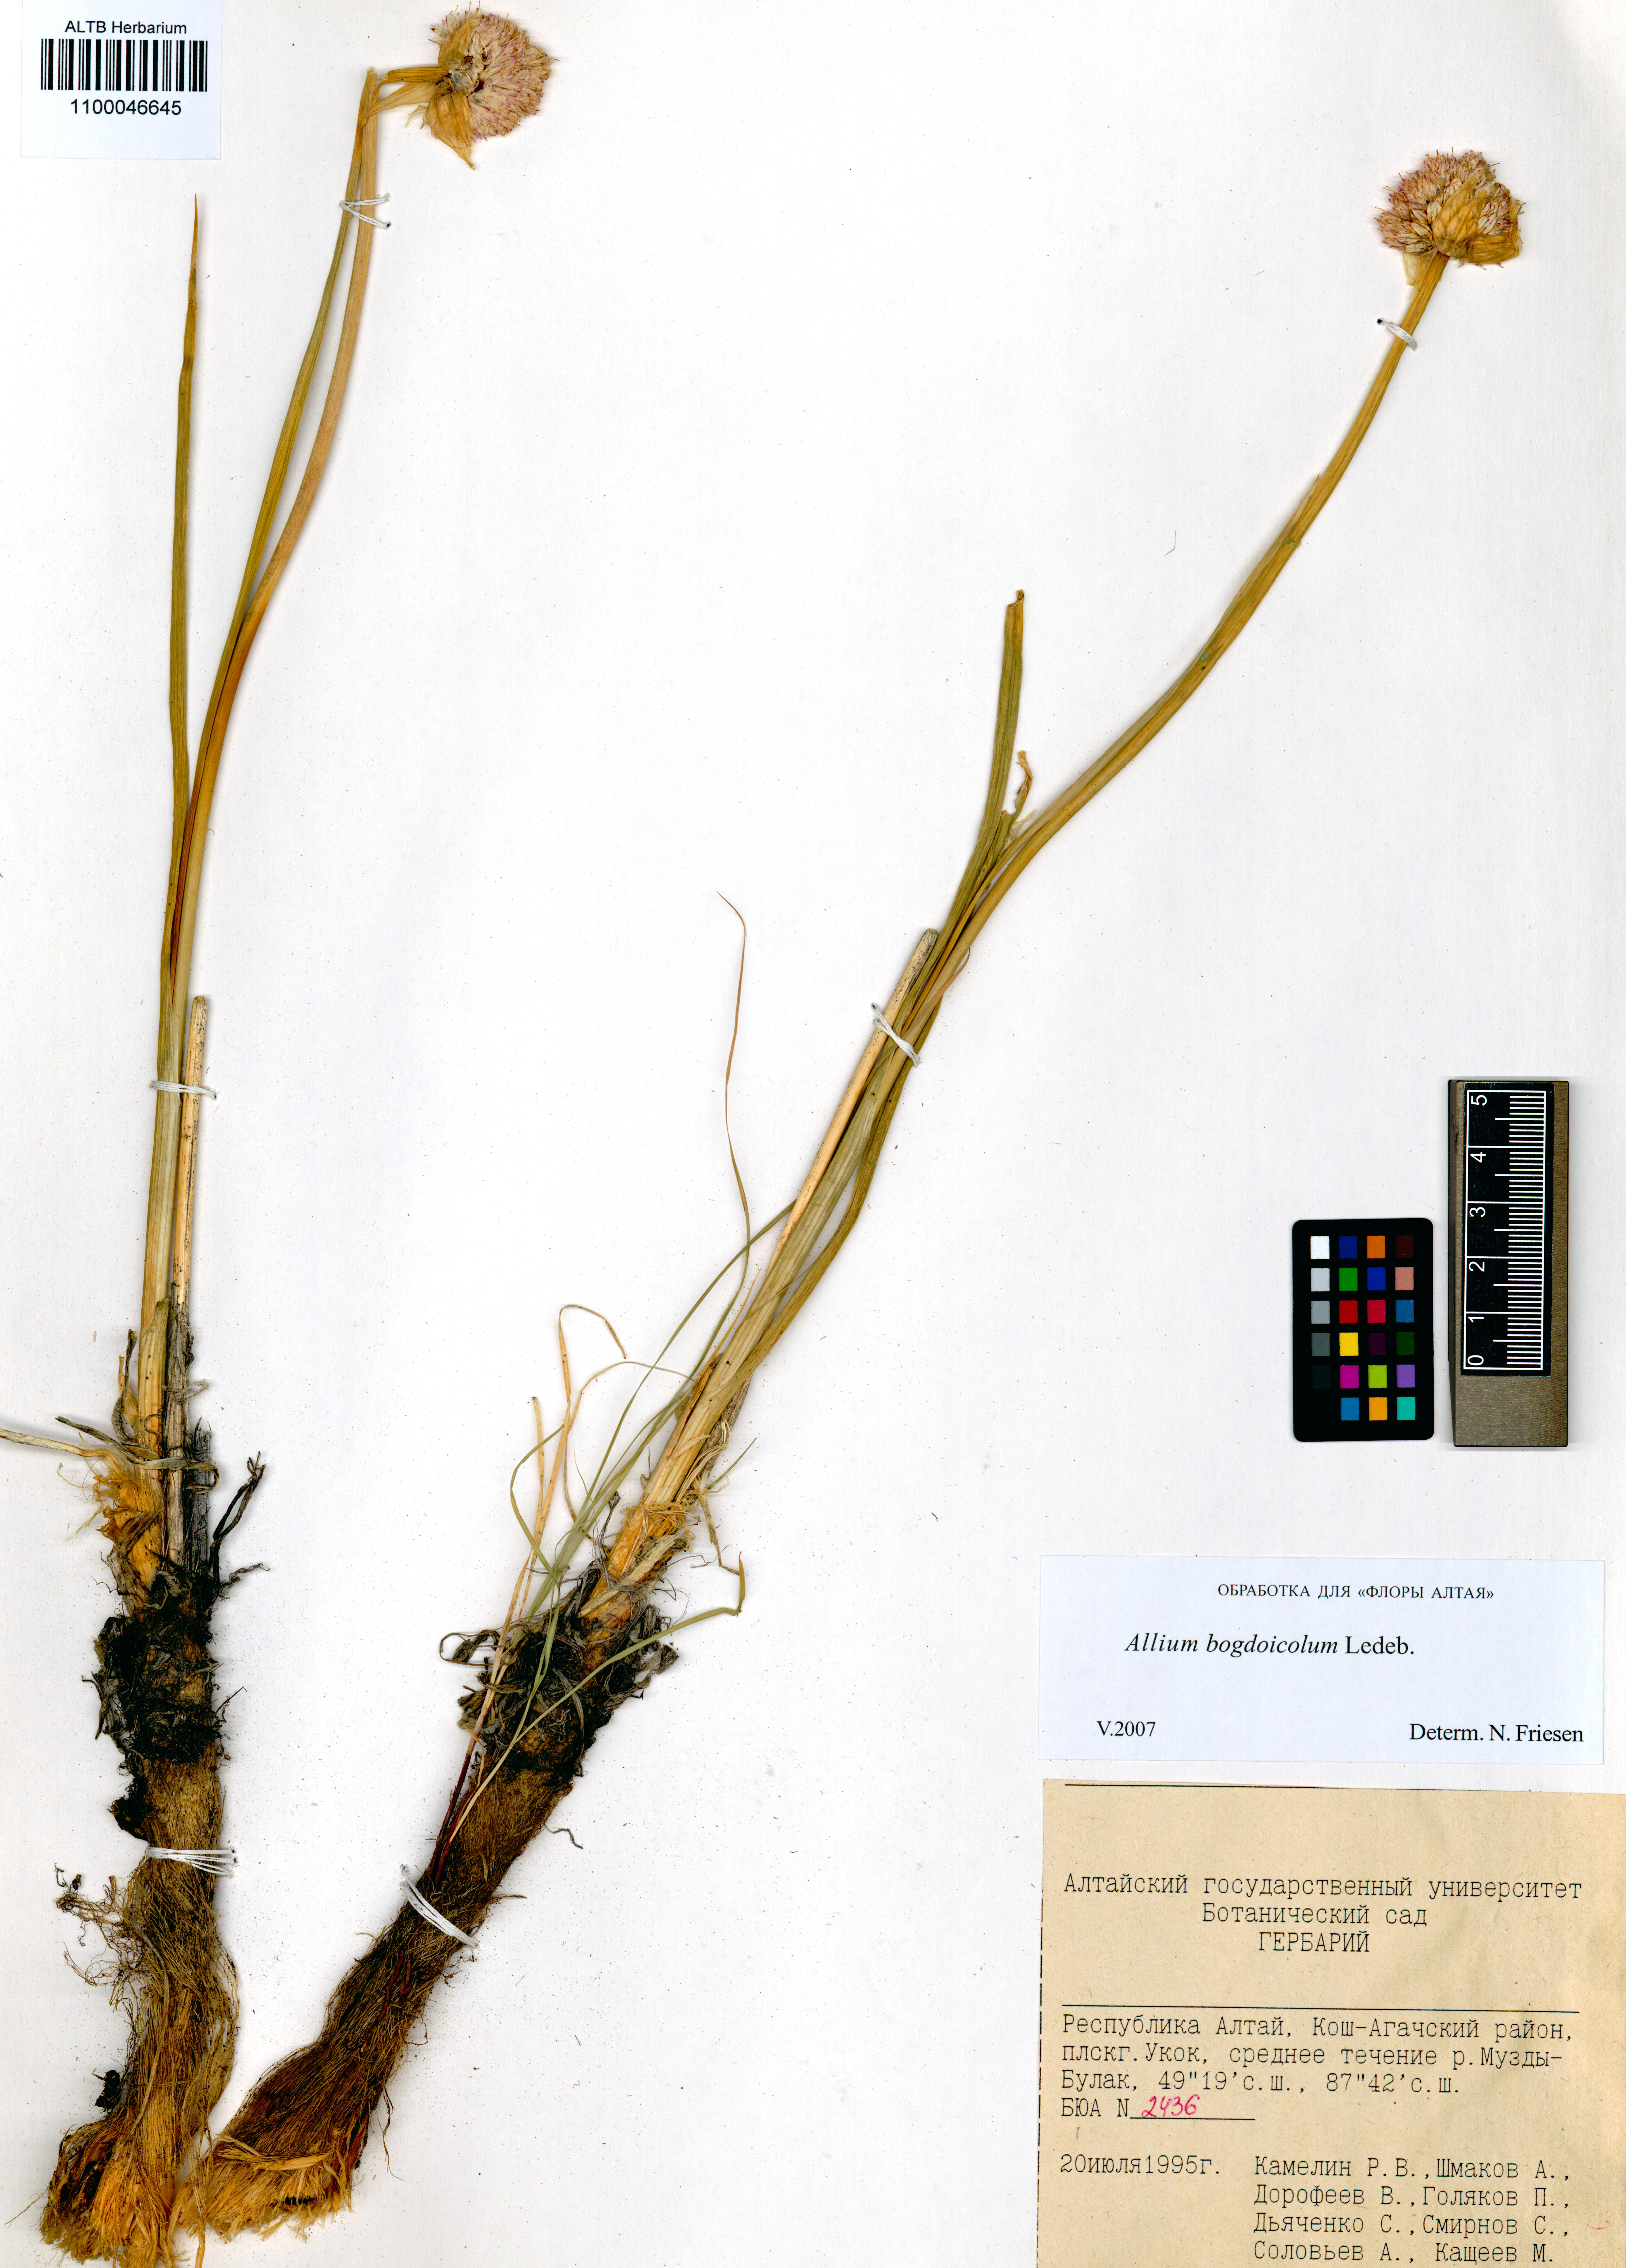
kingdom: Plantae
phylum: Tracheophyta
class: Liliopsida
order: Asparagales
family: Amaryllidaceae
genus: Allium
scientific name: Allium schrenkii
